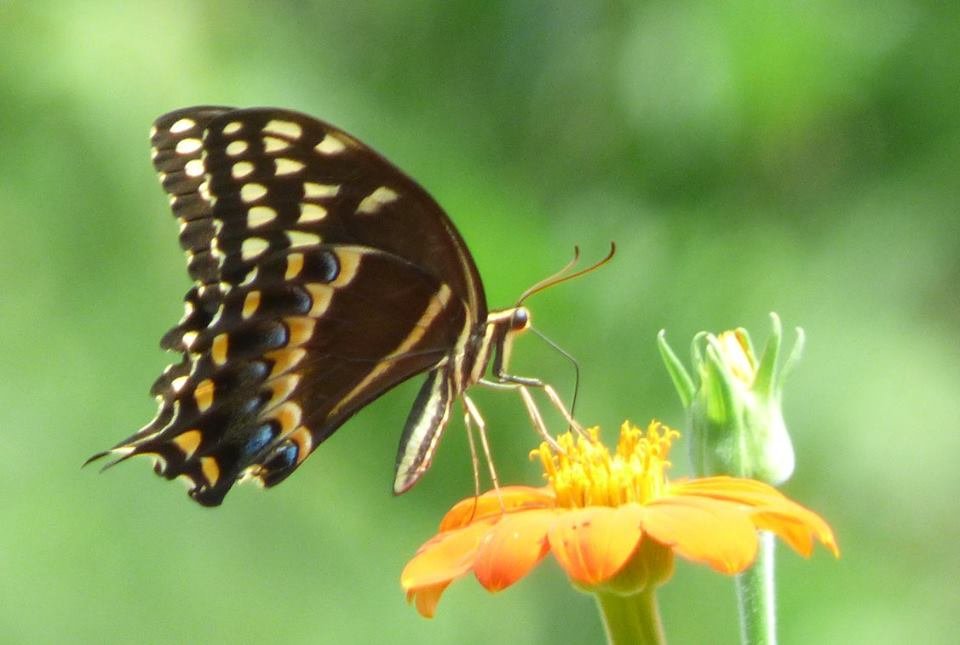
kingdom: Animalia
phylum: Arthropoda
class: Insecta
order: Lepidoptera
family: Papilionidae
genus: Pterourus
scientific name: Pterourus palamedes
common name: Palamedes Swallowtail
